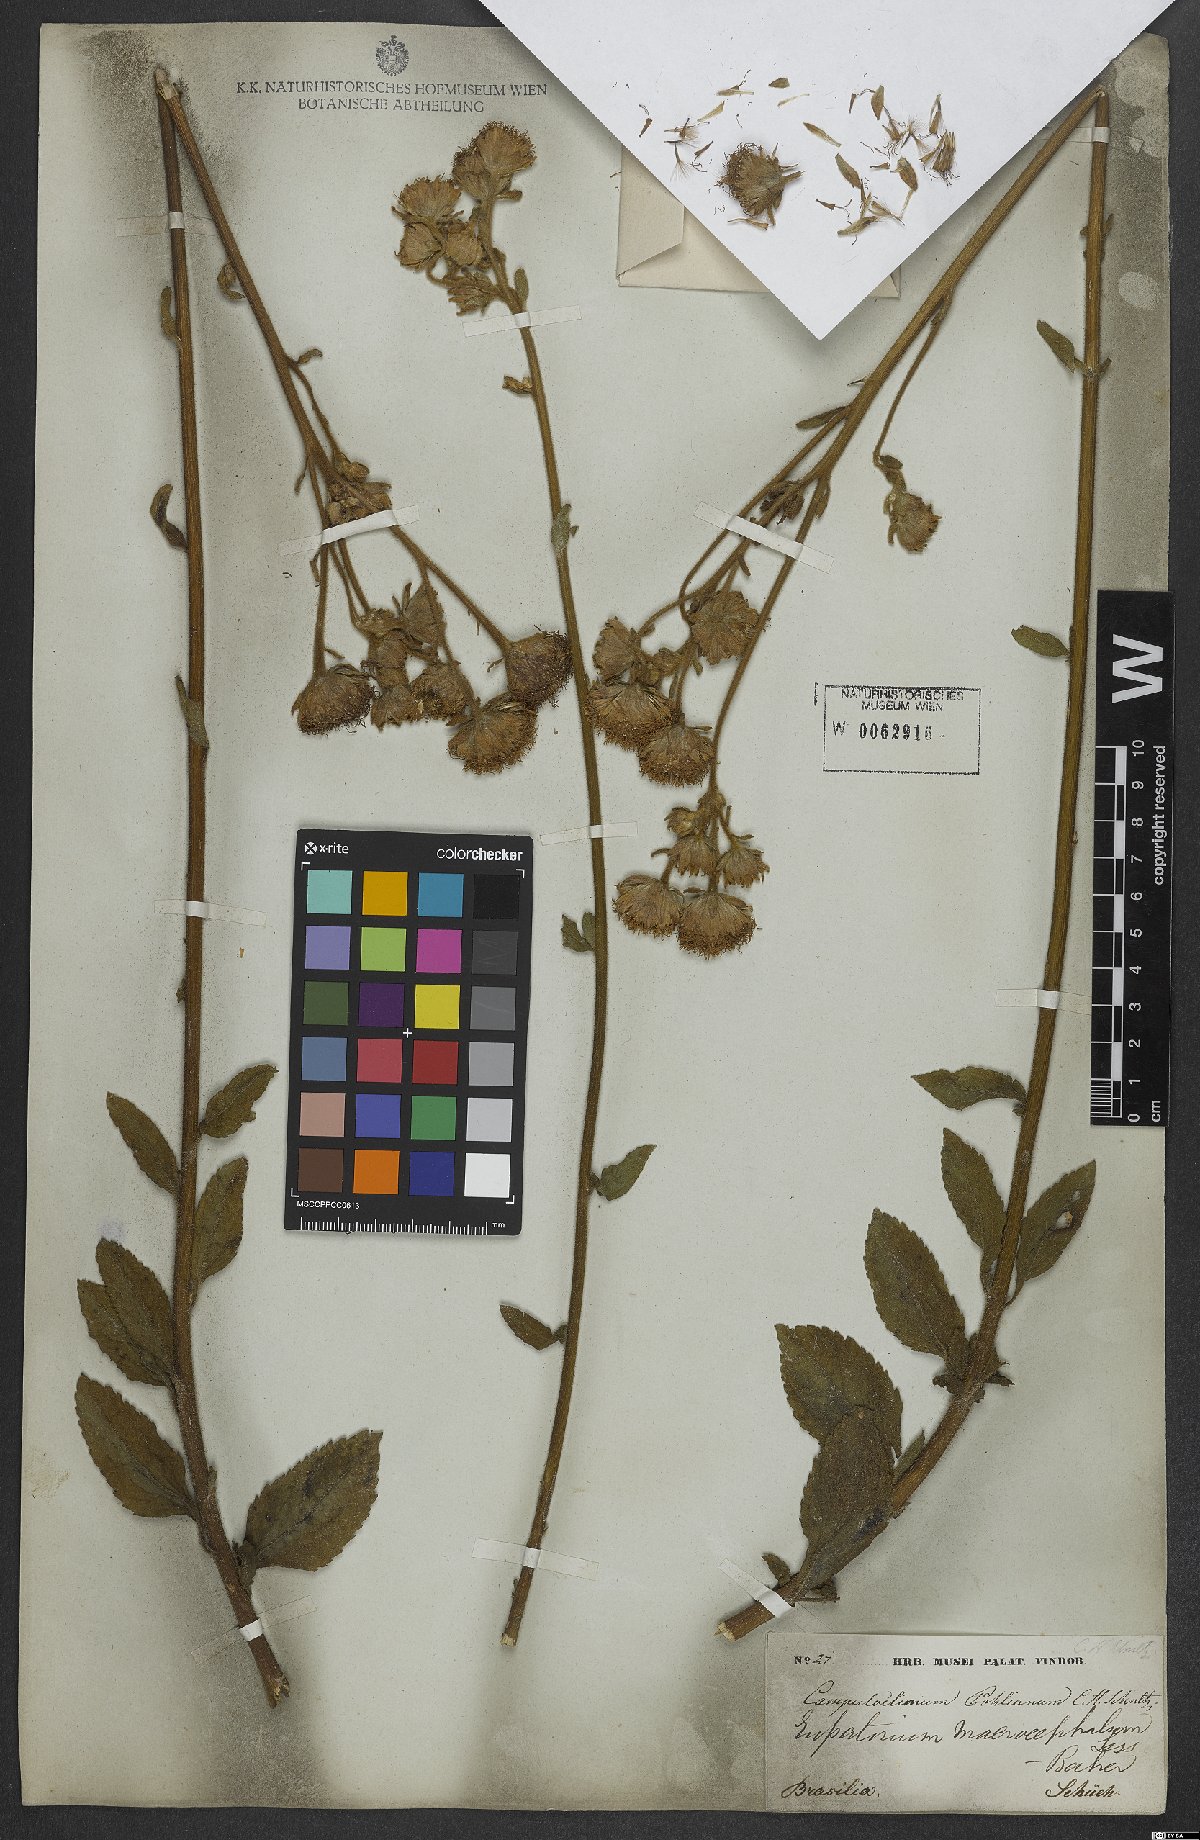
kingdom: Plantae
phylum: Tracheophyta
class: Magnoliopsida
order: Asterales
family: Asteraceae
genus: Campuloclinium
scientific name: Campuloclinium macrocephalum
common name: Pompomweed
